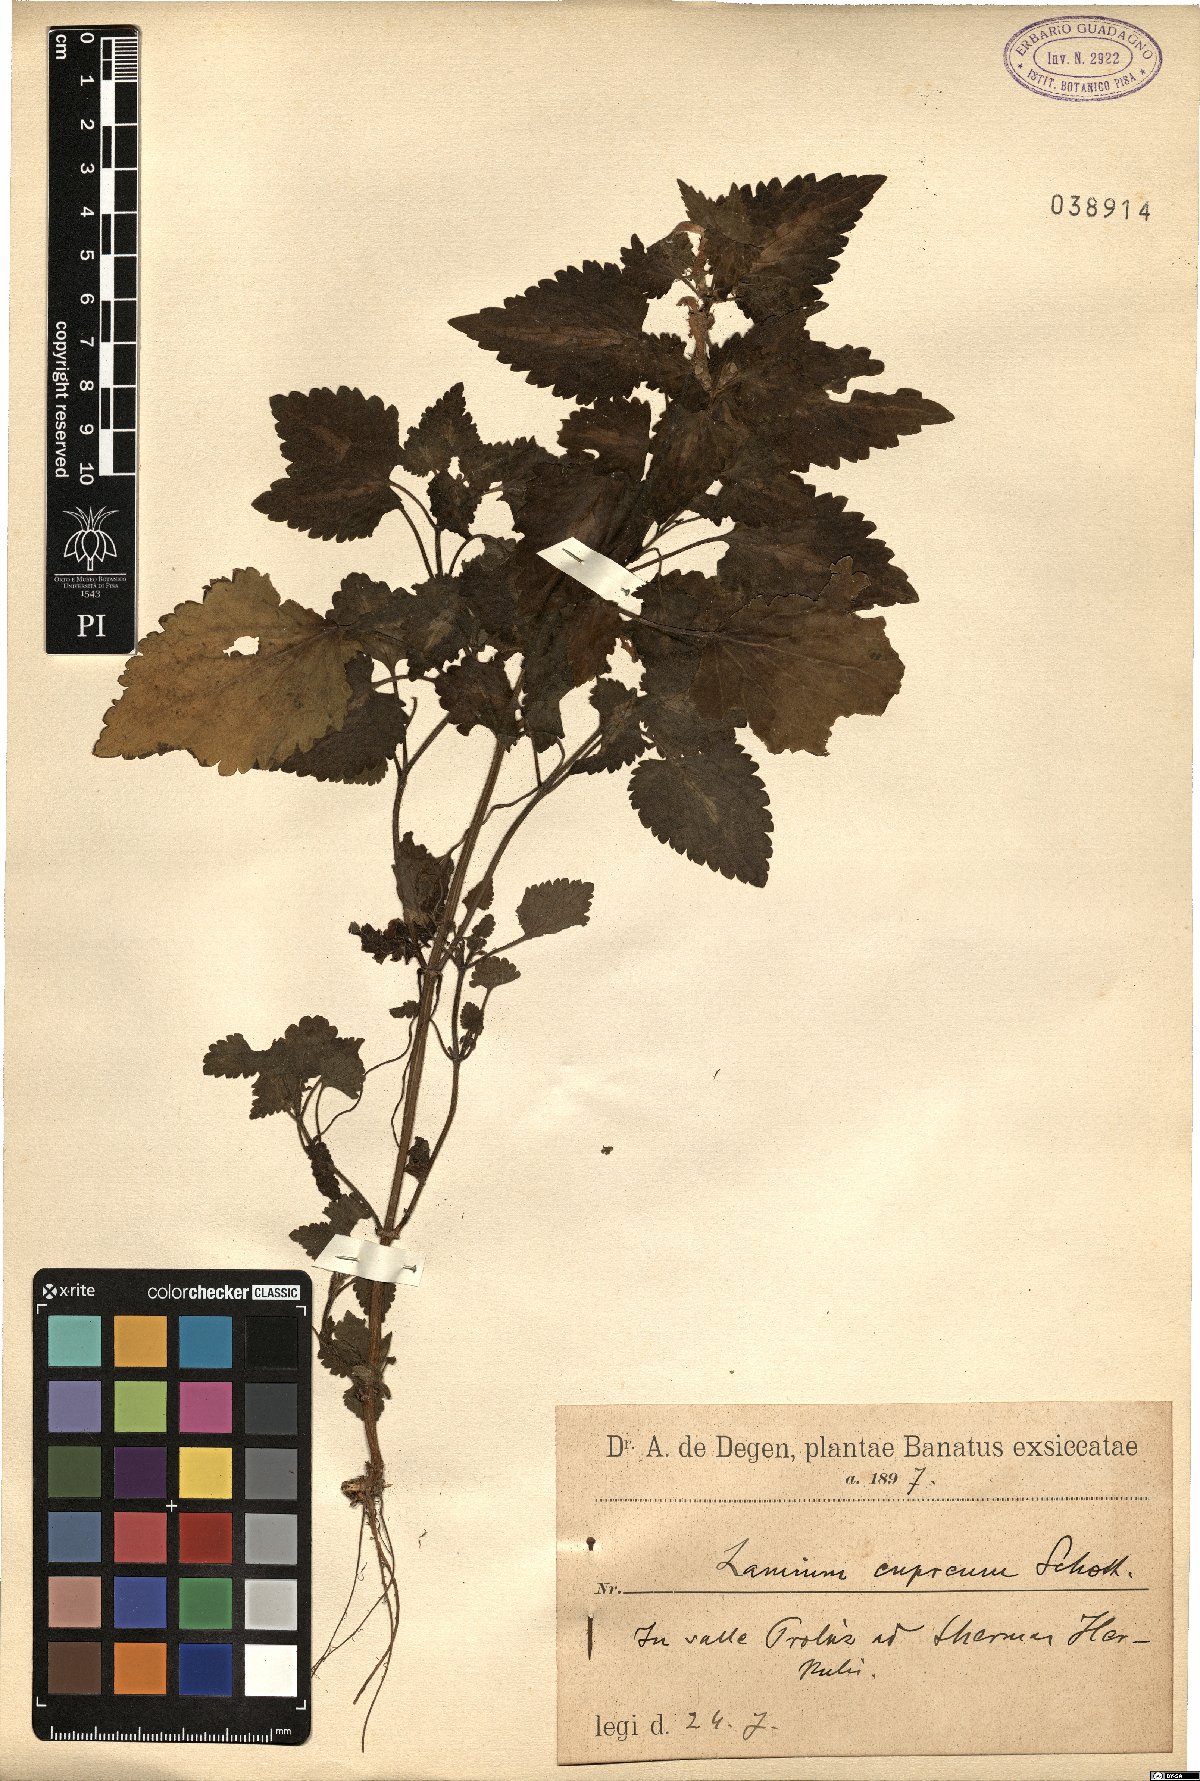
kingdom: Plantae
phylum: Tracheophyta
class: Magnoliopsida
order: Lamiales
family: Lamiaceae
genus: Lamium
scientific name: Lamium maculatum
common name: Spotted dead-nettle
